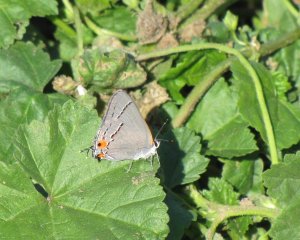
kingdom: Animalia
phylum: Arthropoda
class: Insecta
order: Lepidoptera
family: Lycaenidae
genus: Strymon
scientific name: Strymon melinus
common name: Gray Hairstreak
